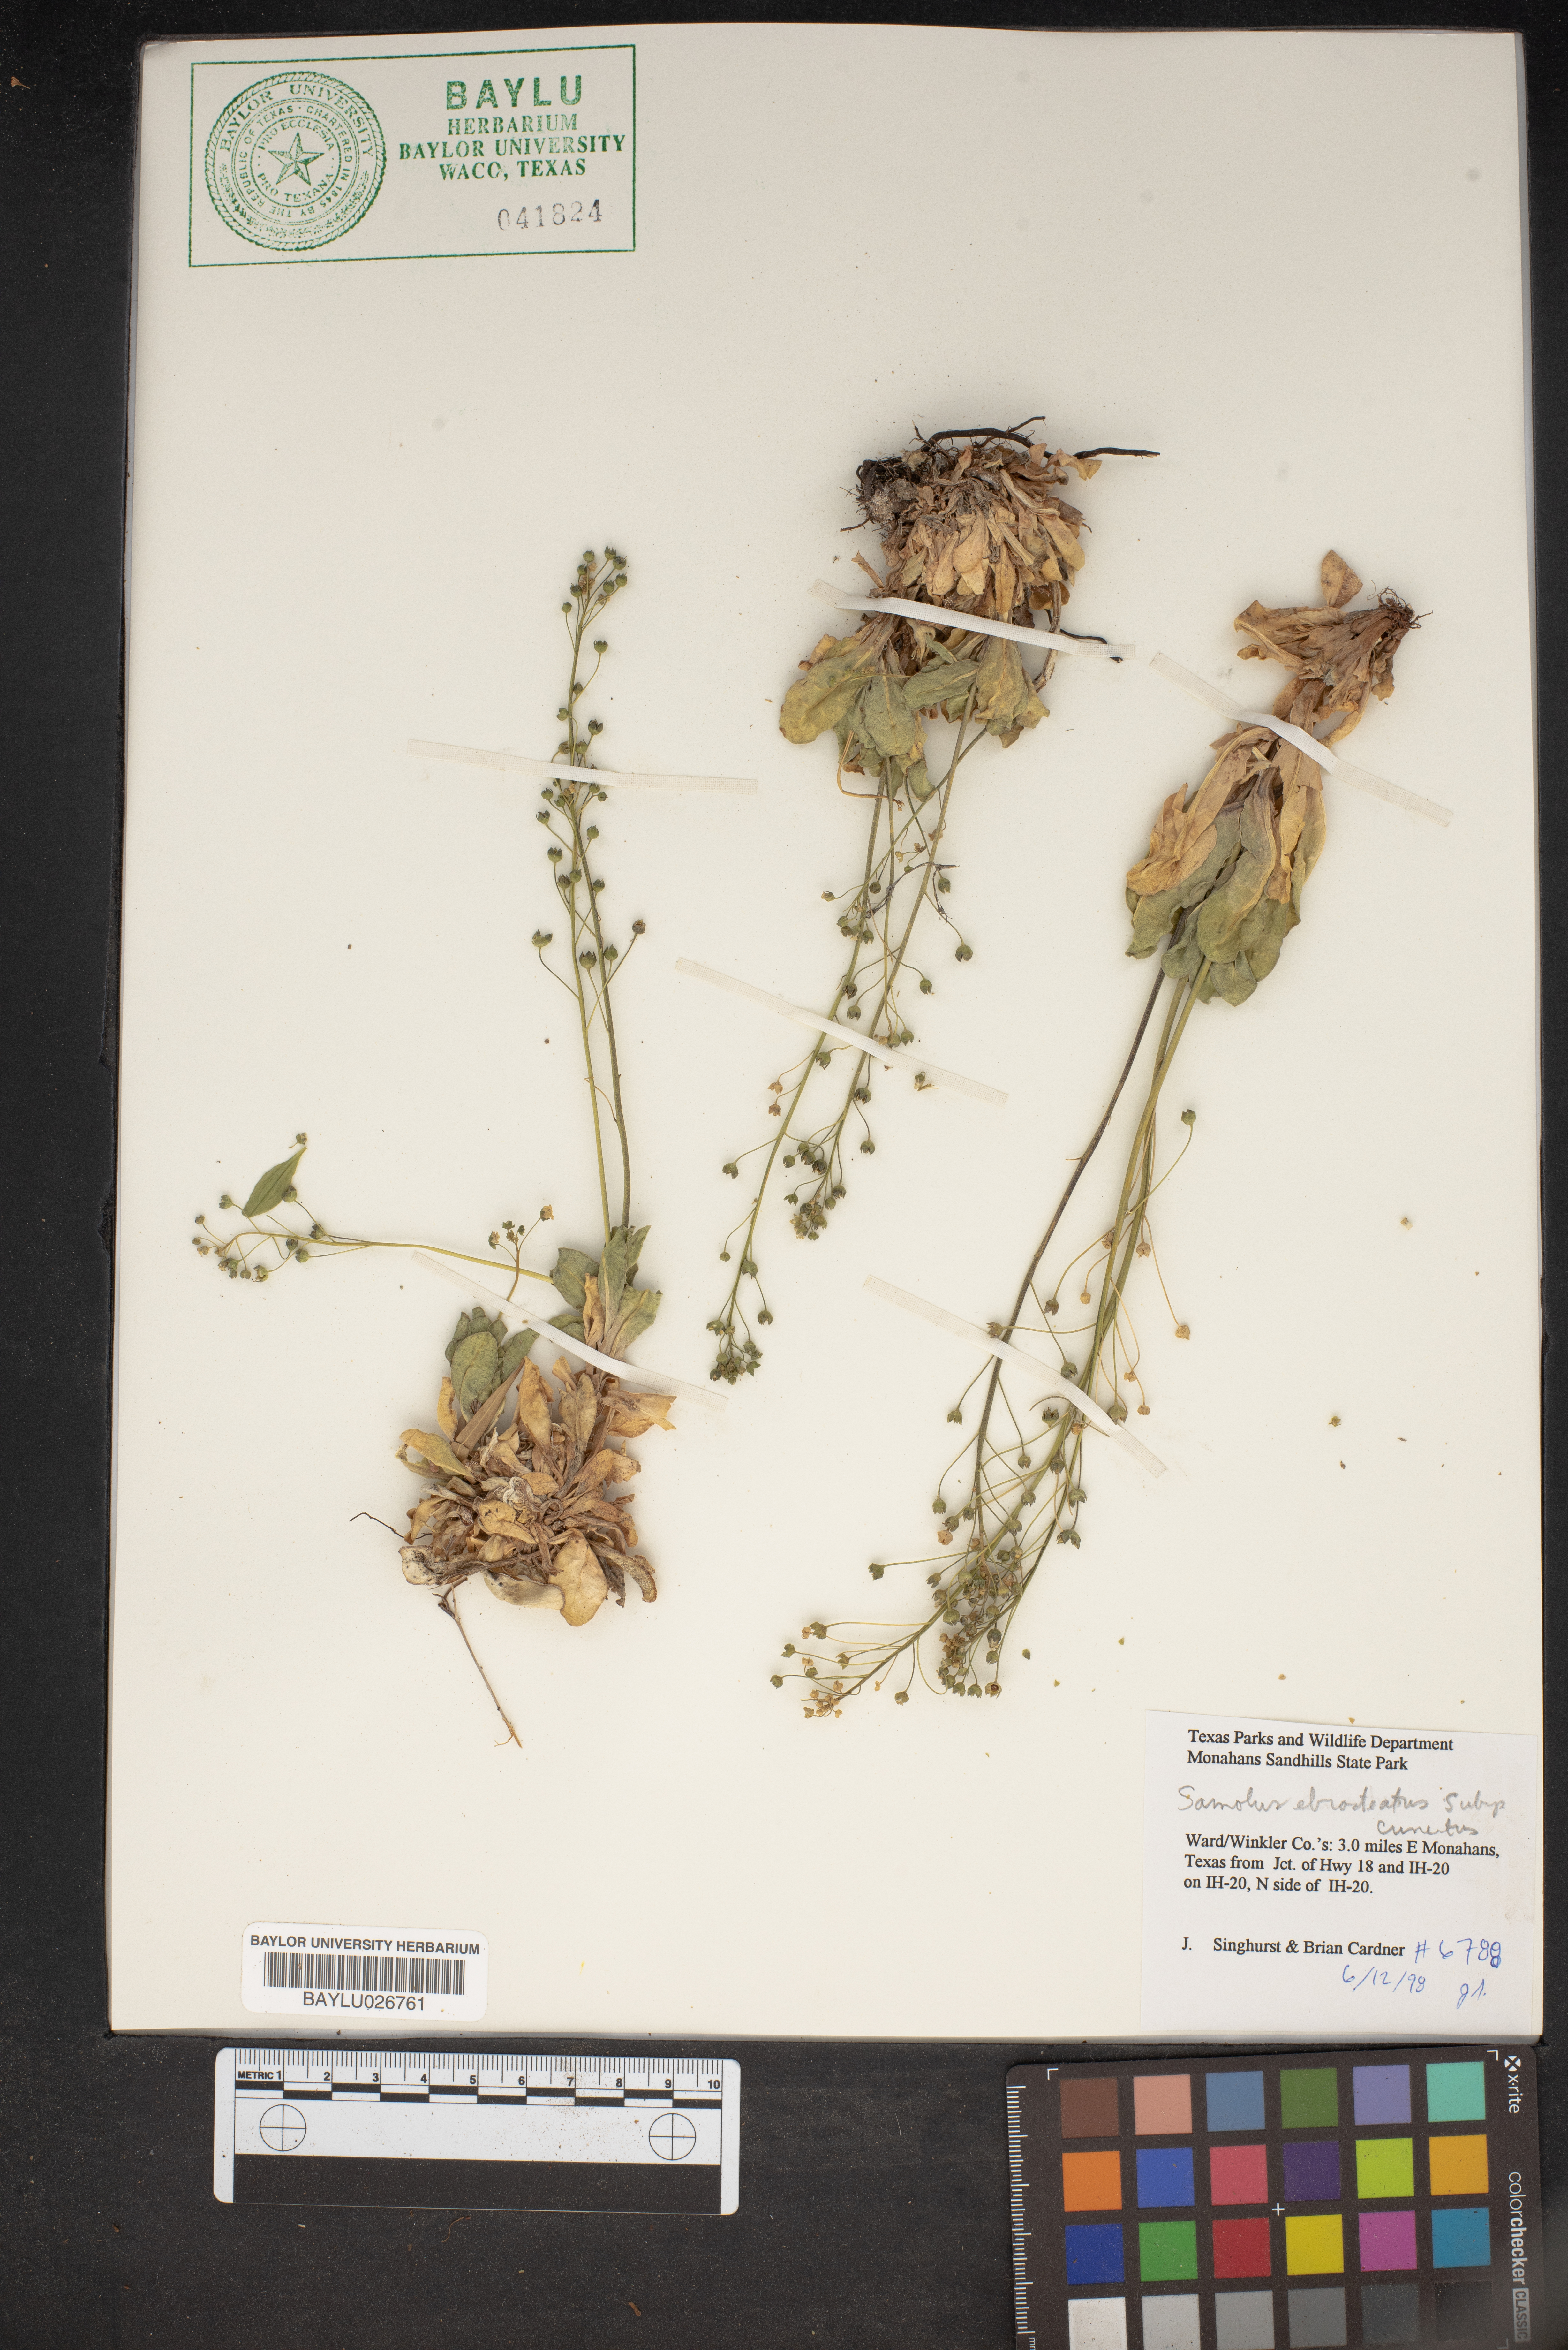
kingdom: Plantae
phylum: Tracheophyta
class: Magnoliopsida
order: Ericales
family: Primulaceae
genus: Samolus
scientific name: Samolus ebracteatus
